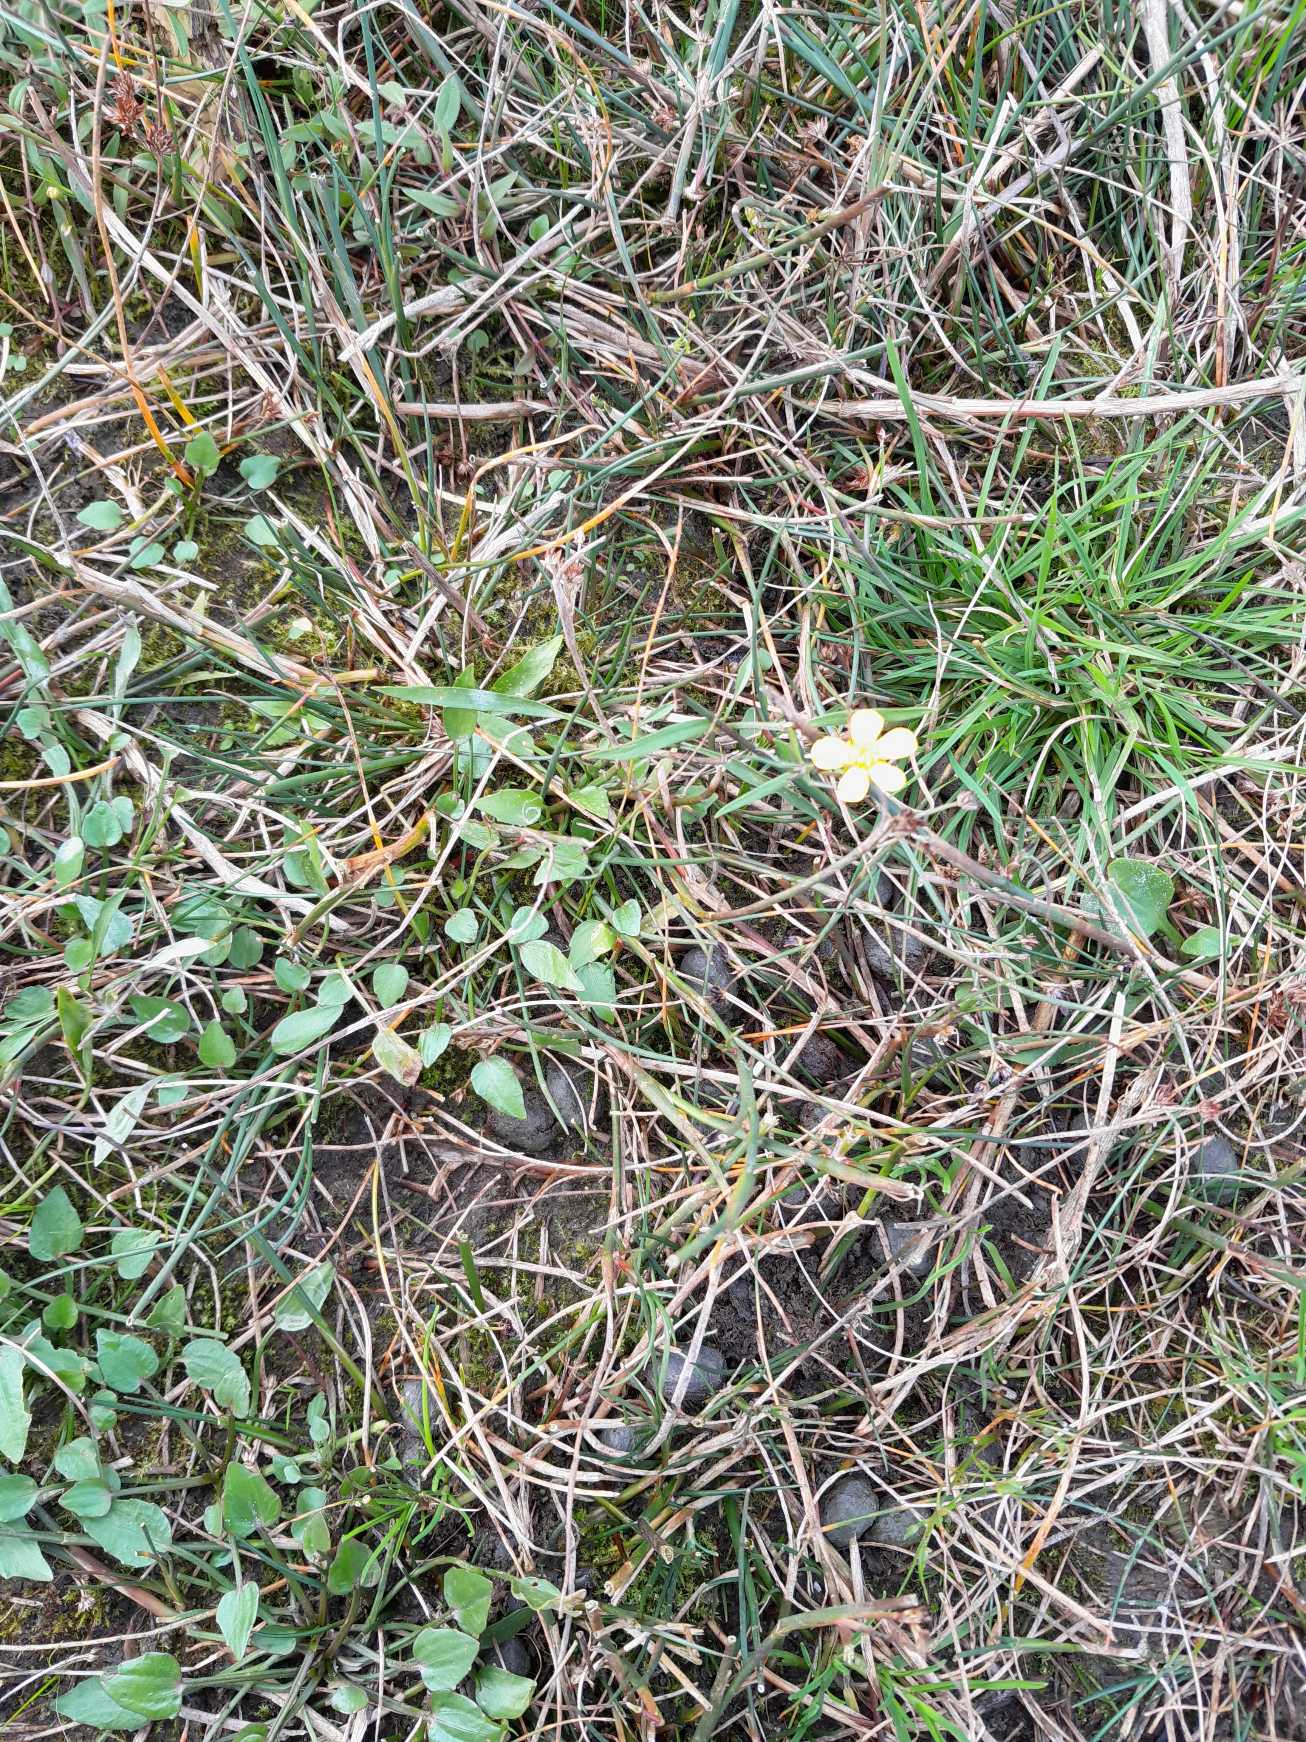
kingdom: Plantae
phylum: Tracheophyta
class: Magnoliopsida
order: Ranunculales
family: Ranunculaceae
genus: Ranunculus
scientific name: Ranunculus flammula
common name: Kær-ranunkel
